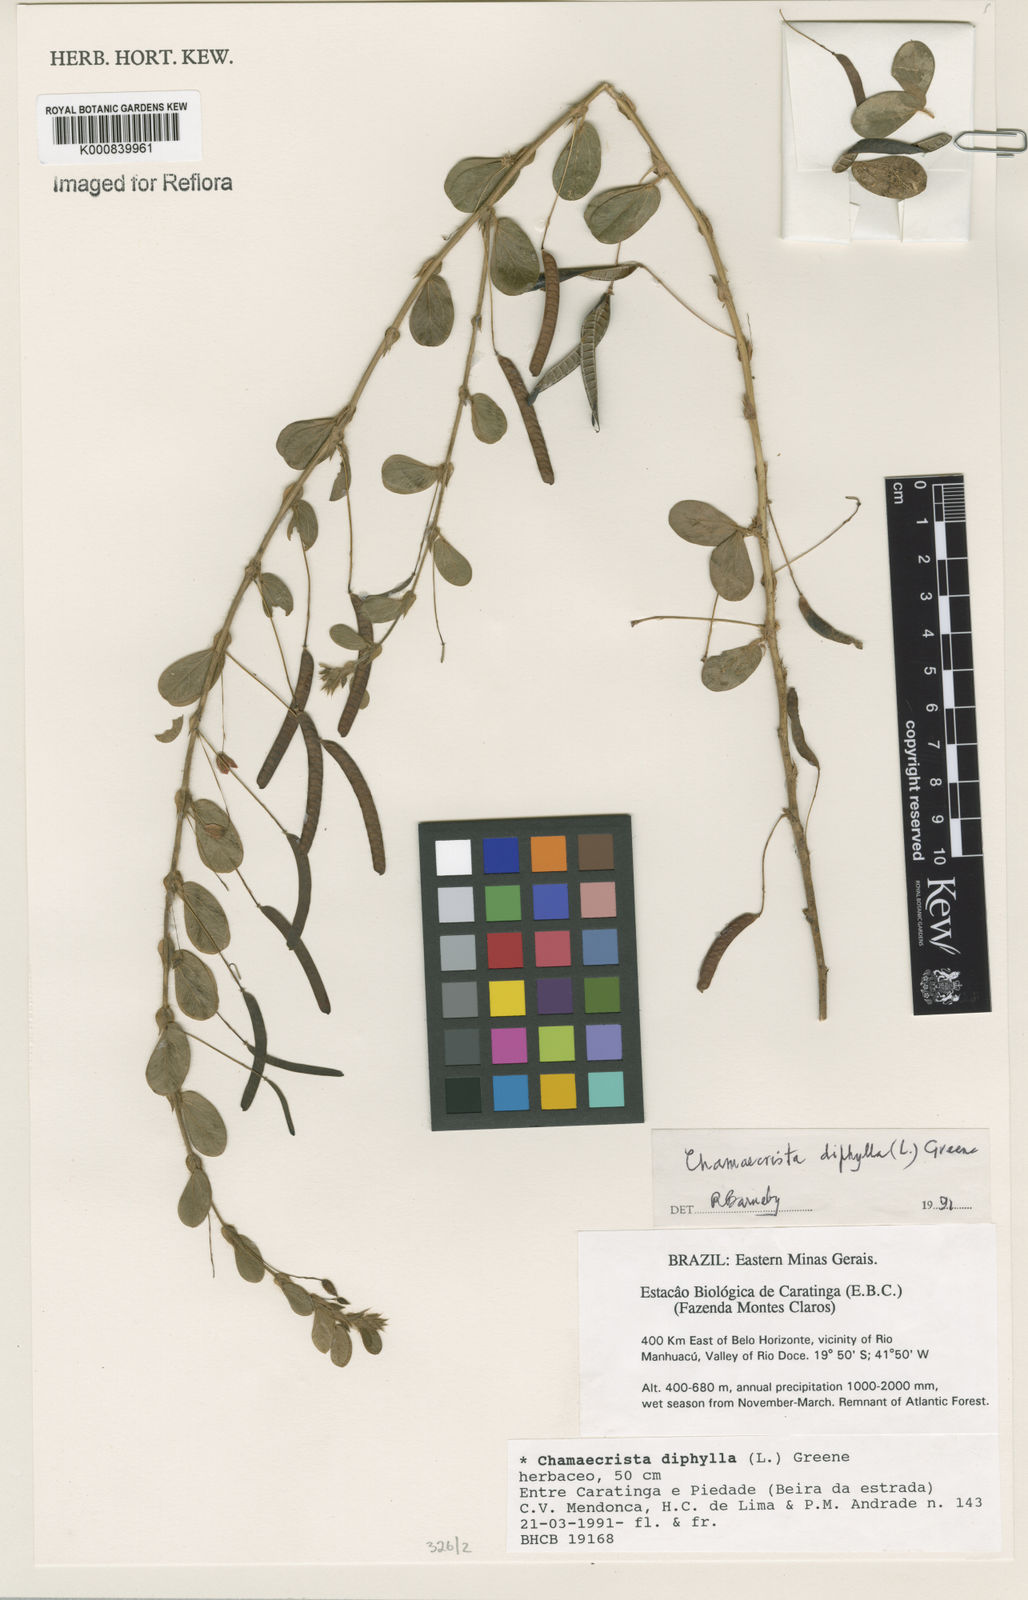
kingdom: Plantae
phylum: Tracheophyta
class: Magnoliopsida
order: Fabales
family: Fabaceae
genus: Chamaecrista
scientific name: Chamaecrista rotundifolia
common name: Round-leaf cassia
